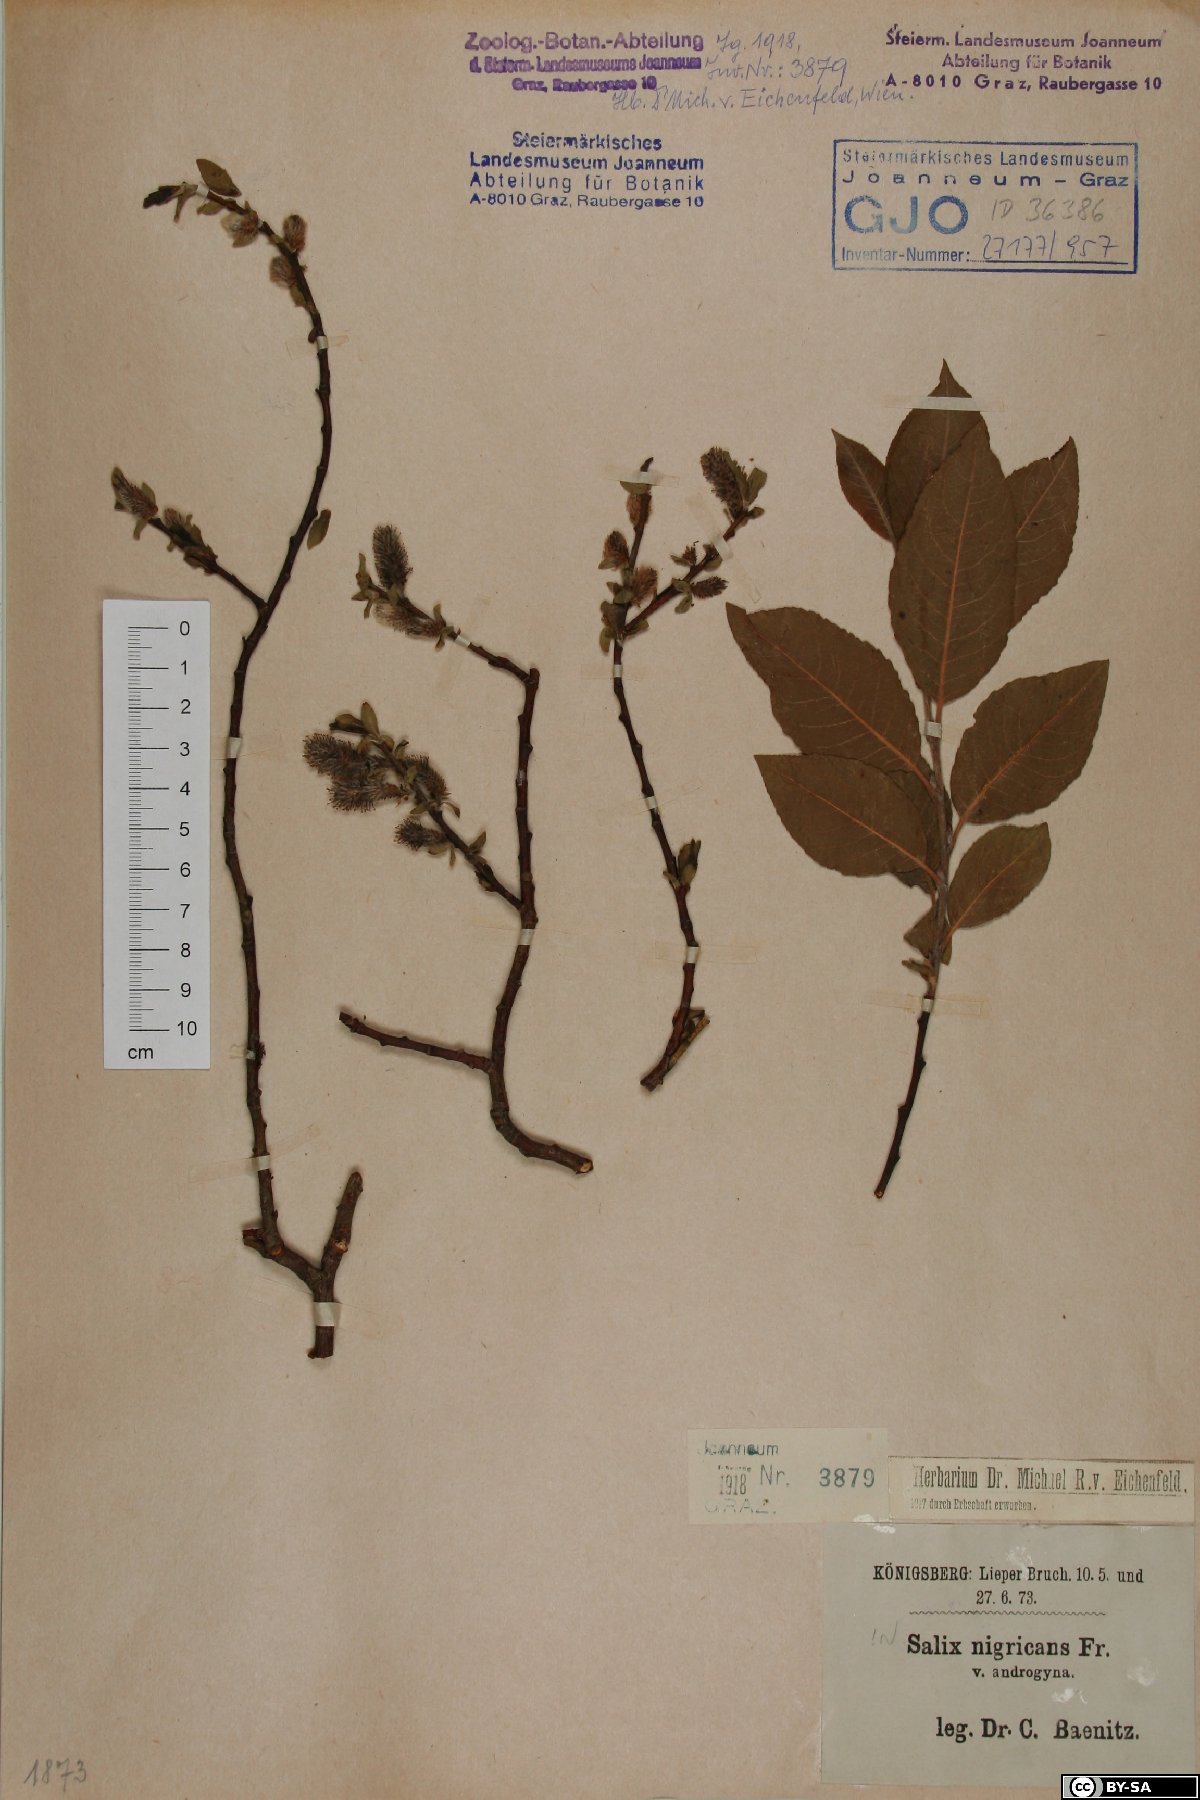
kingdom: Plantae
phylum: Tracheophyta
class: Magnoliopsida
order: Malpighiales
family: Salicaceae
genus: Salix
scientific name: Salix myrsinifolia
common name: Dark-leaved willow
